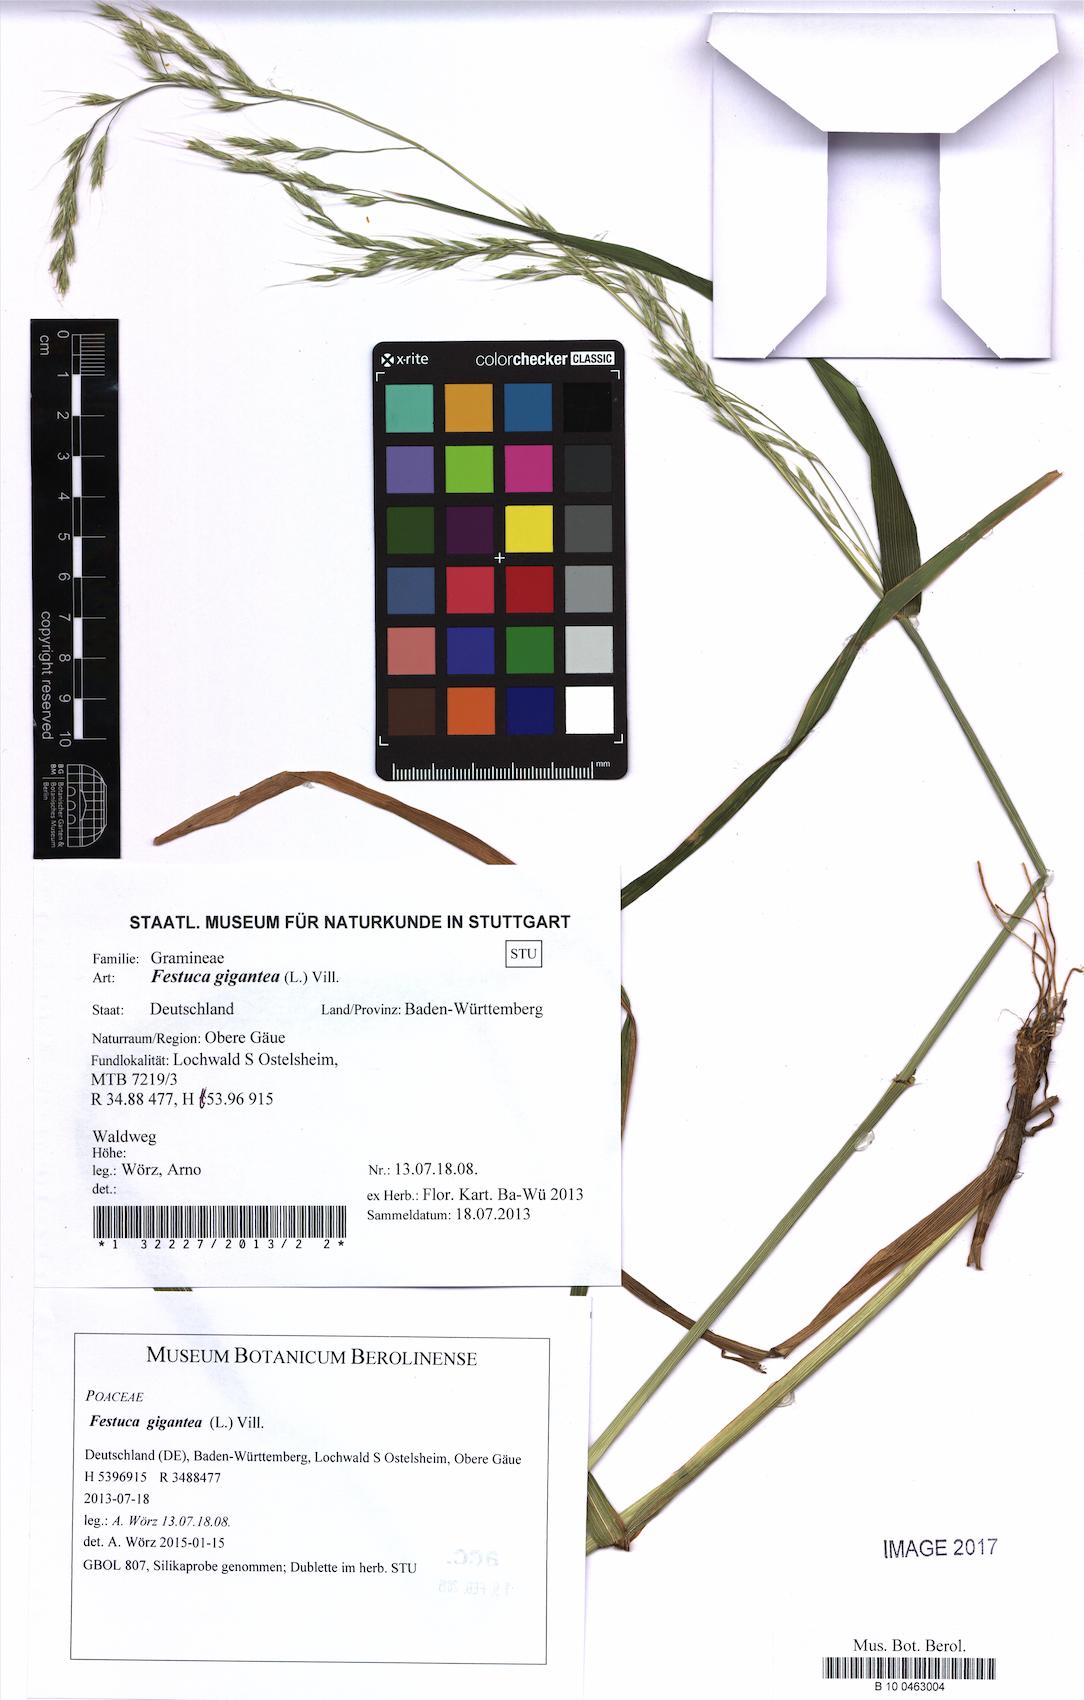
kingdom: Plantae
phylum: Tracheophyta
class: Liliopsida
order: Poales
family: Poaceae
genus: Lolium
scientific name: Lolium giganteum
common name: Giant fescue
